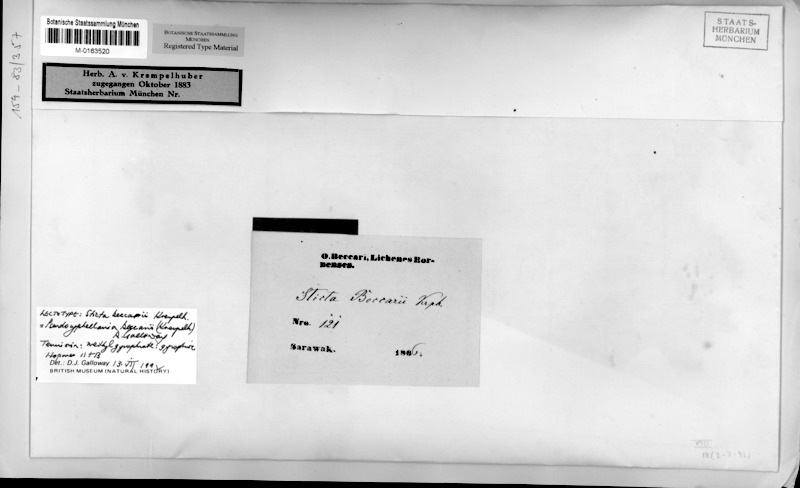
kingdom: Fungi
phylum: Ascomycota
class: Lecanoromycetes
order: Peltigerales
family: Lobariaceae
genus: Pseudocyphellaria
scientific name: Pseudocyphellaria beccarii
